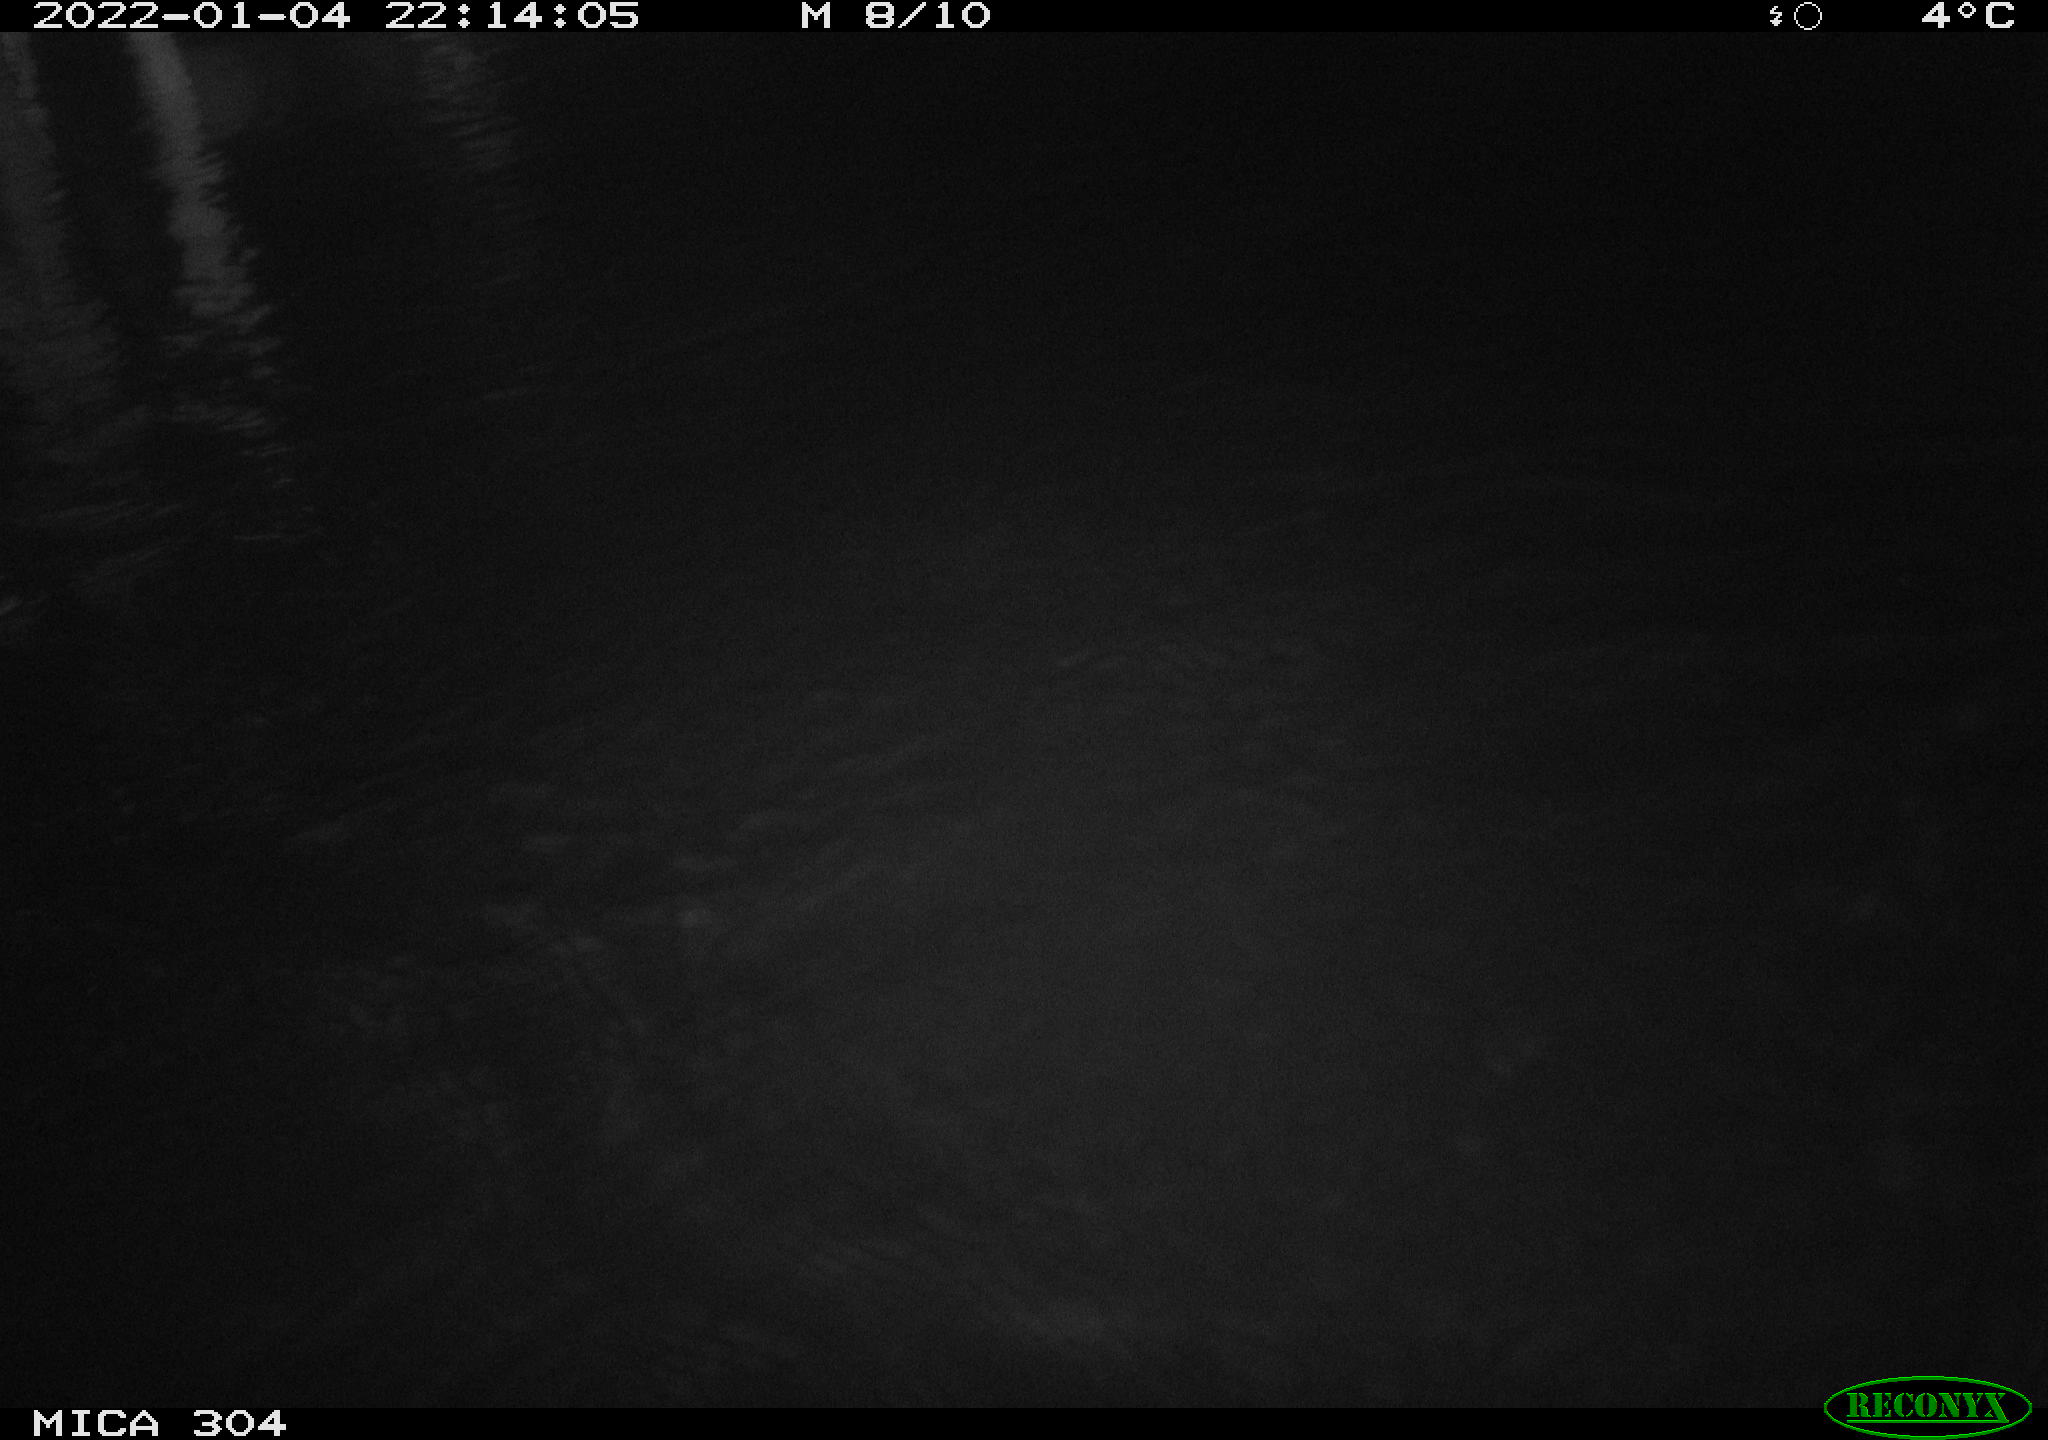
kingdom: Animalia
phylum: Chordata
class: Aves
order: Anseriformes
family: Anatidae
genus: Anas
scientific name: Anas
